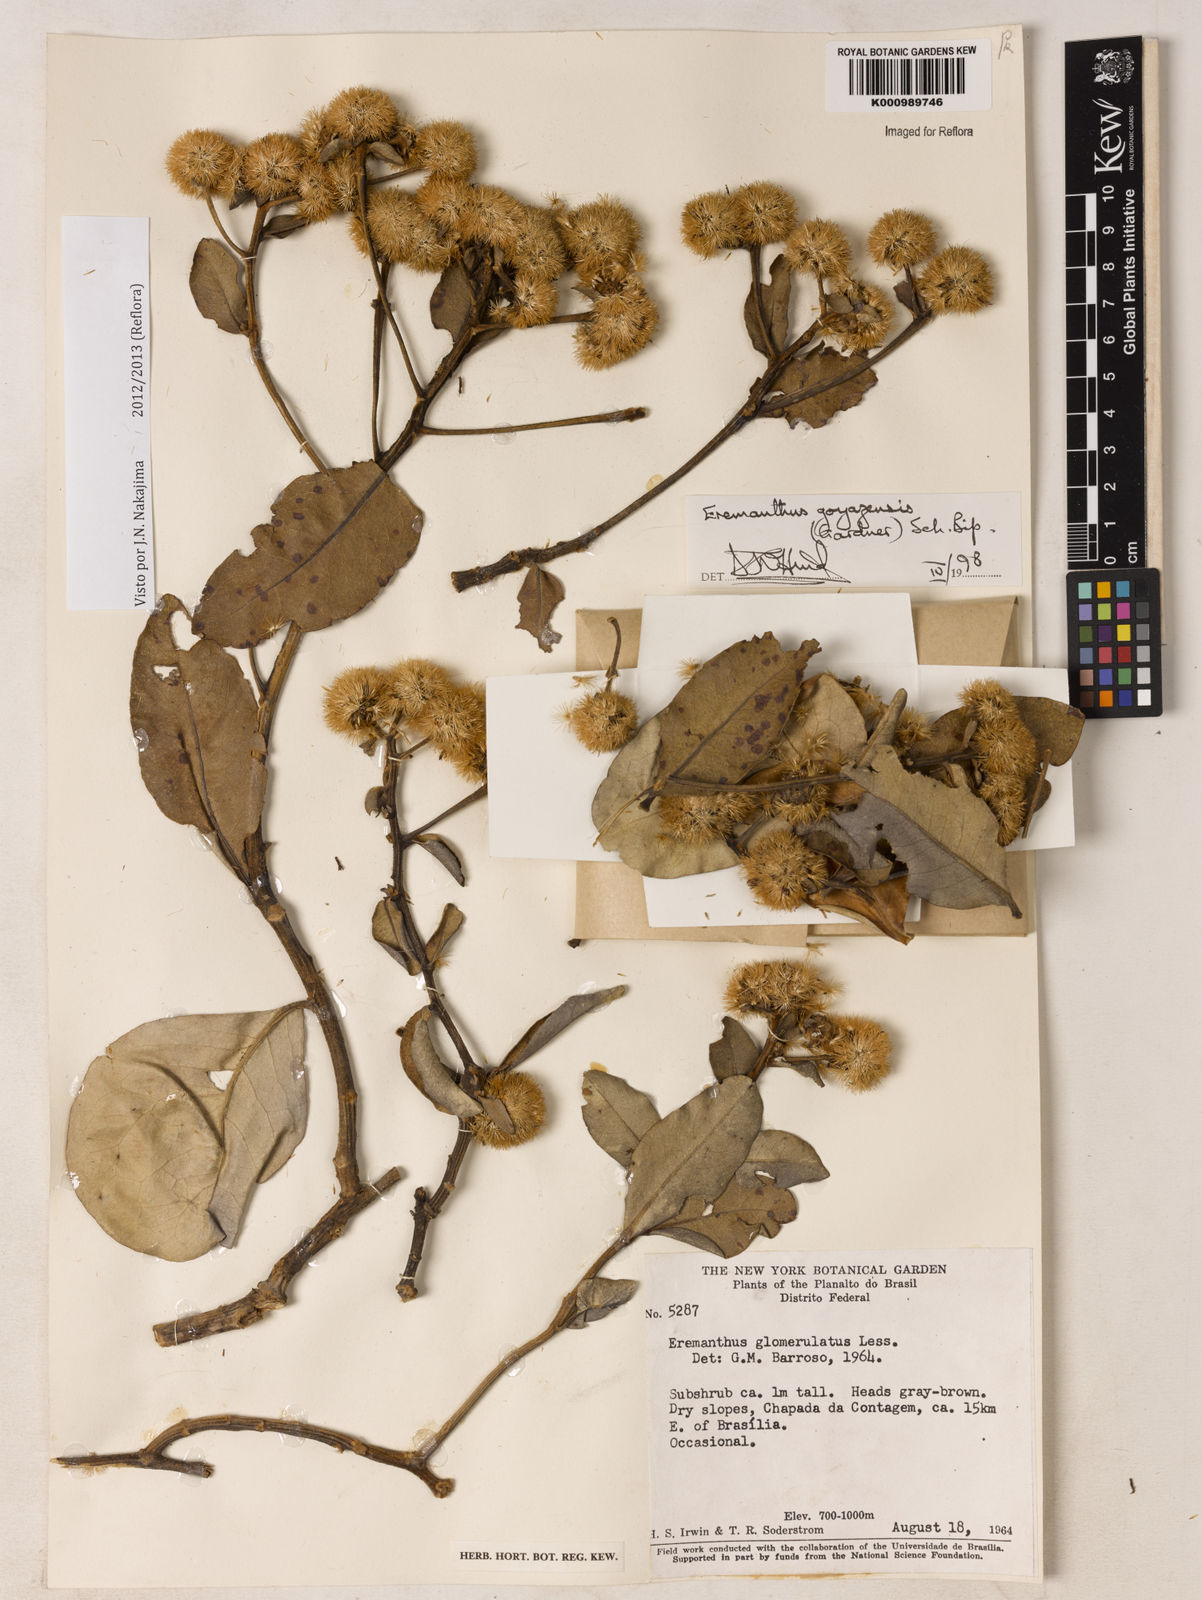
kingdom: Plantae
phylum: Tracheophyta
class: Magnoliopsida
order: Asterales
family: Asteraceae
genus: Eremanthus
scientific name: Eremanthus goyazensis
